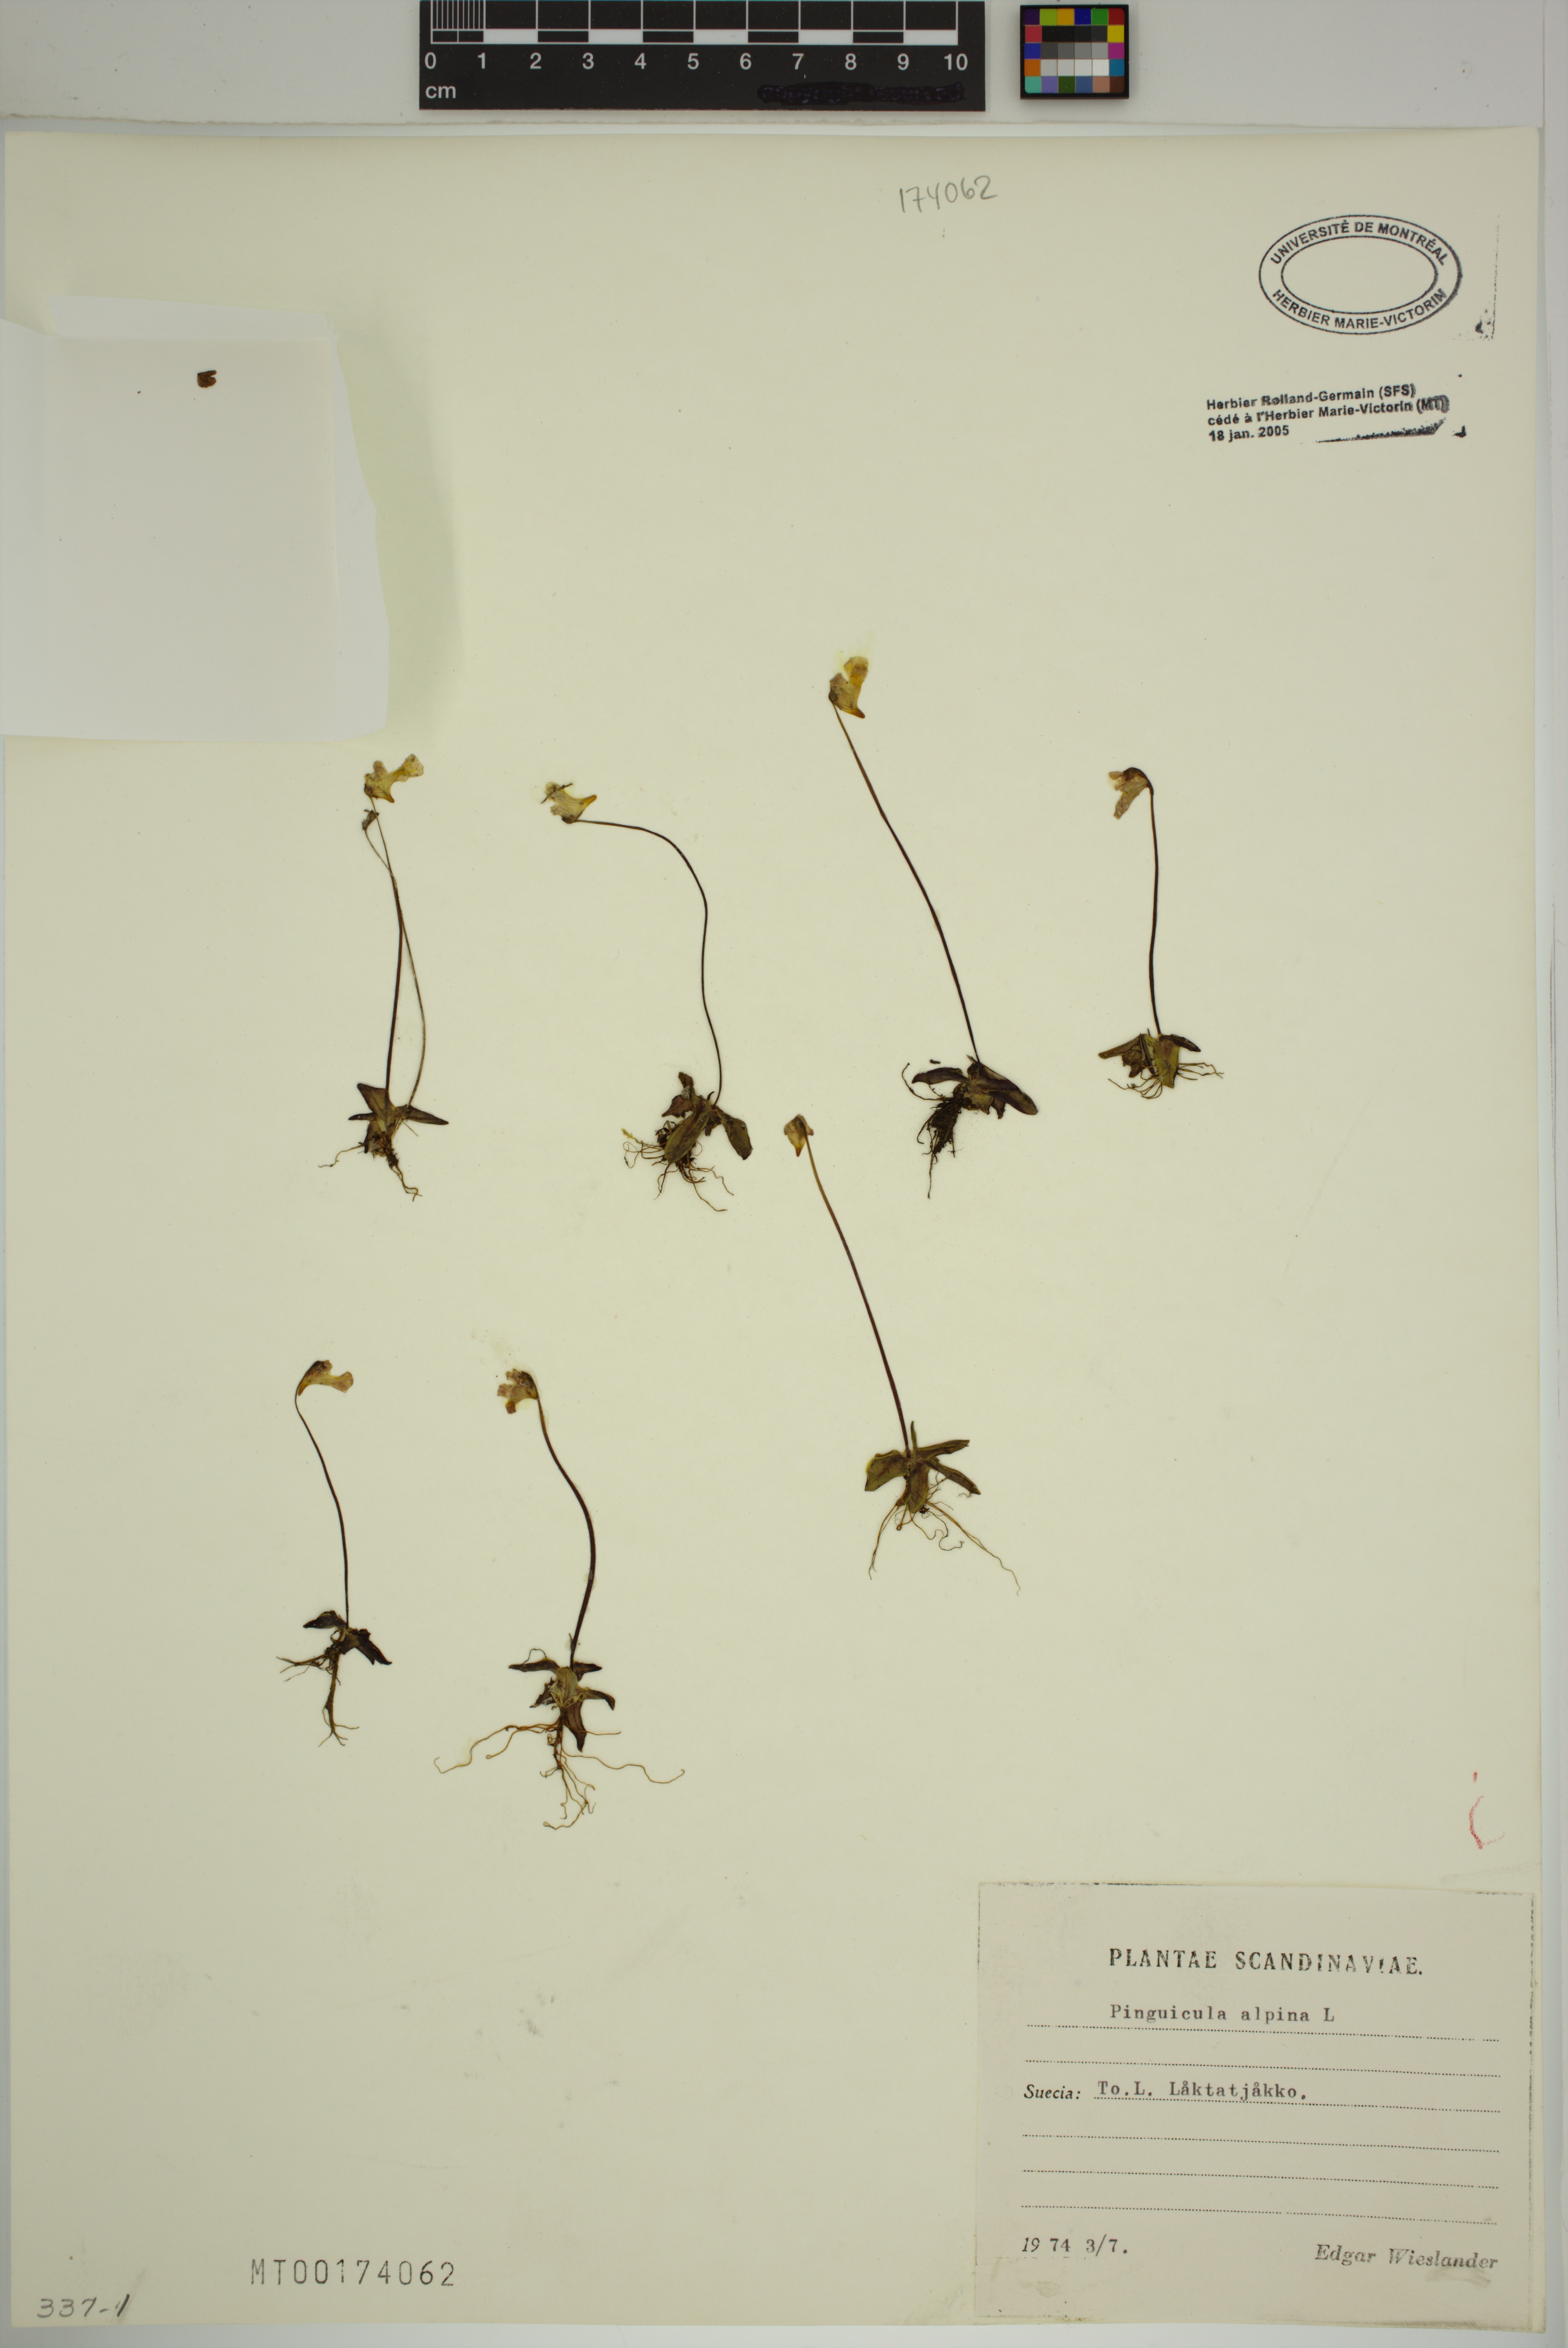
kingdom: Plantae
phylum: Tracheophyta
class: Magnoliopsida
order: Lamiales
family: Lentibulariaceae
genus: Pinguicula
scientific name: Pinguicula alpina
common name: Alpine butterwort
